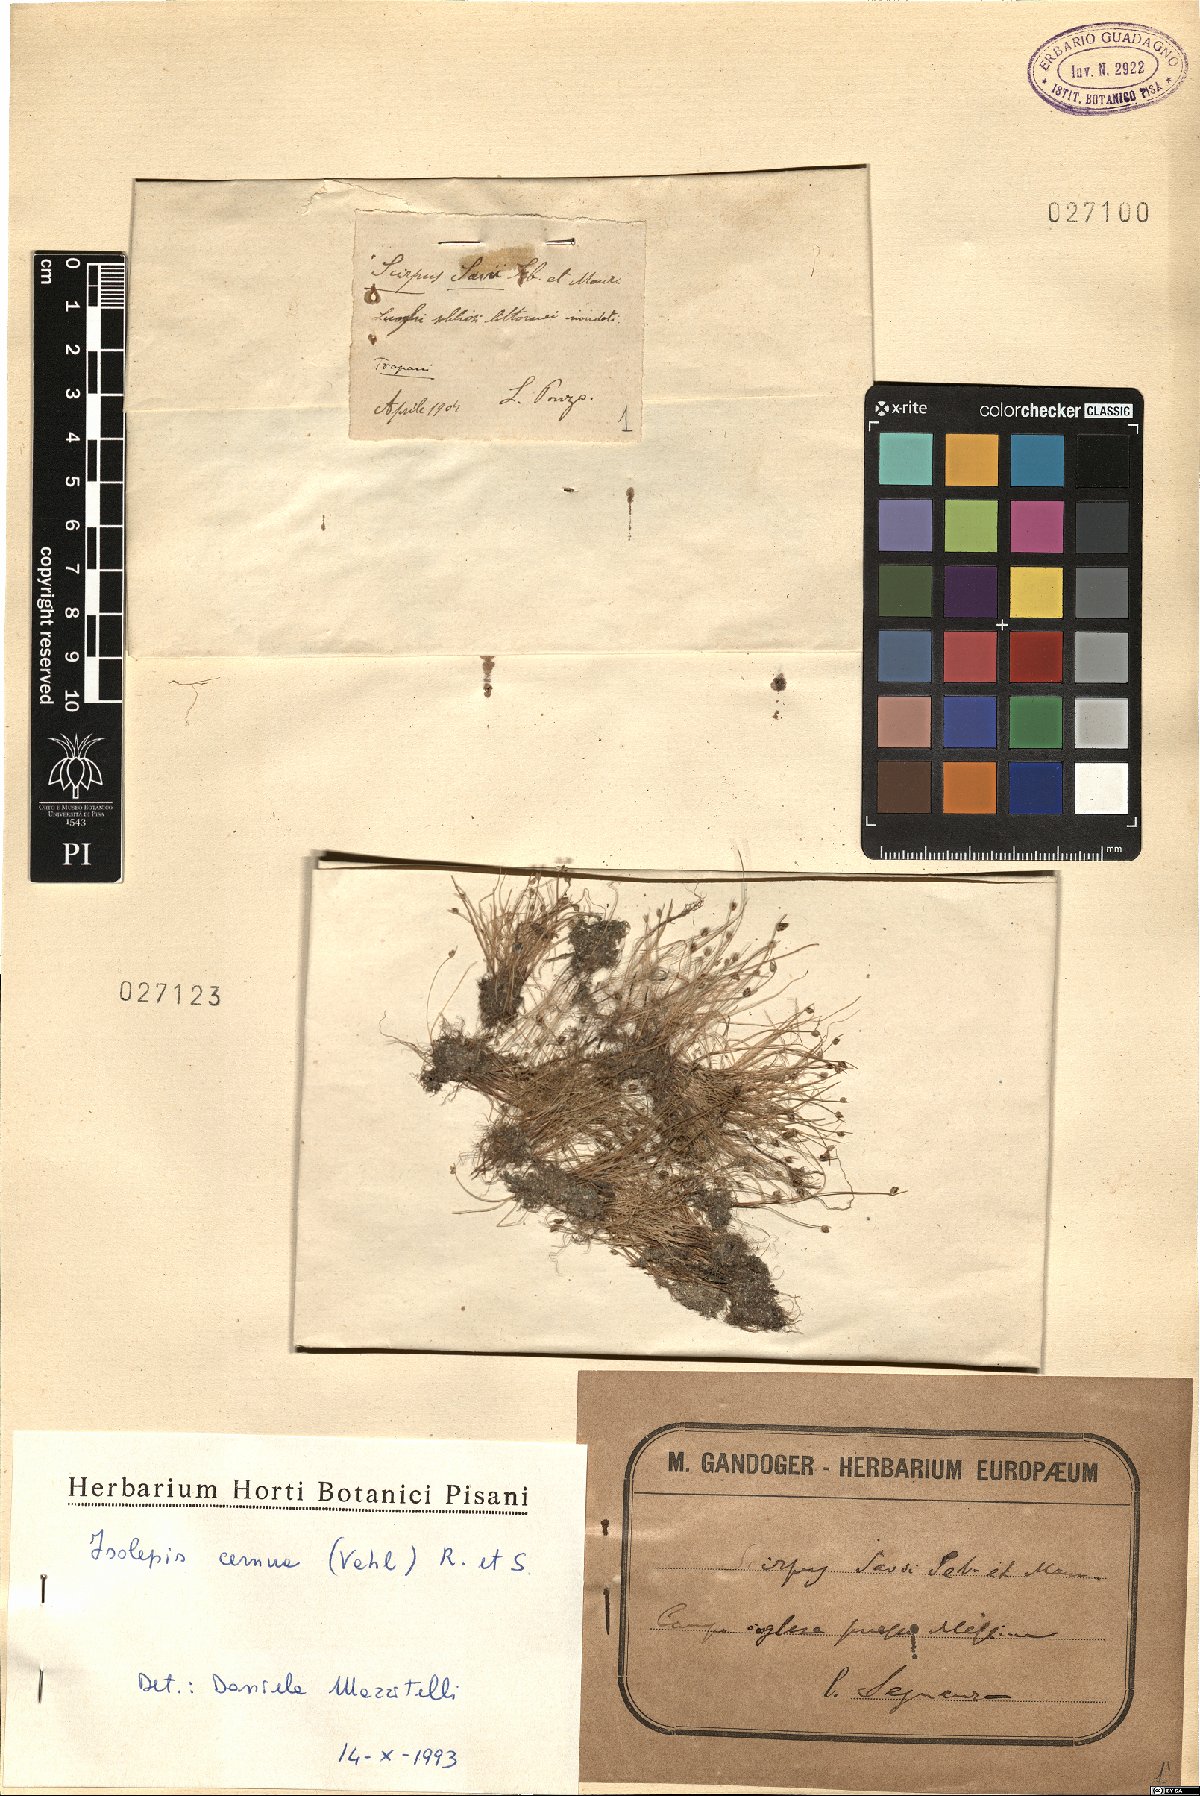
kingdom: Plantae
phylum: Tracheophyta
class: Liliopsida
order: Poales
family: Cyperaceae
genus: Isolepis
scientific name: Isolepis cernua
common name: Slender club-rush
